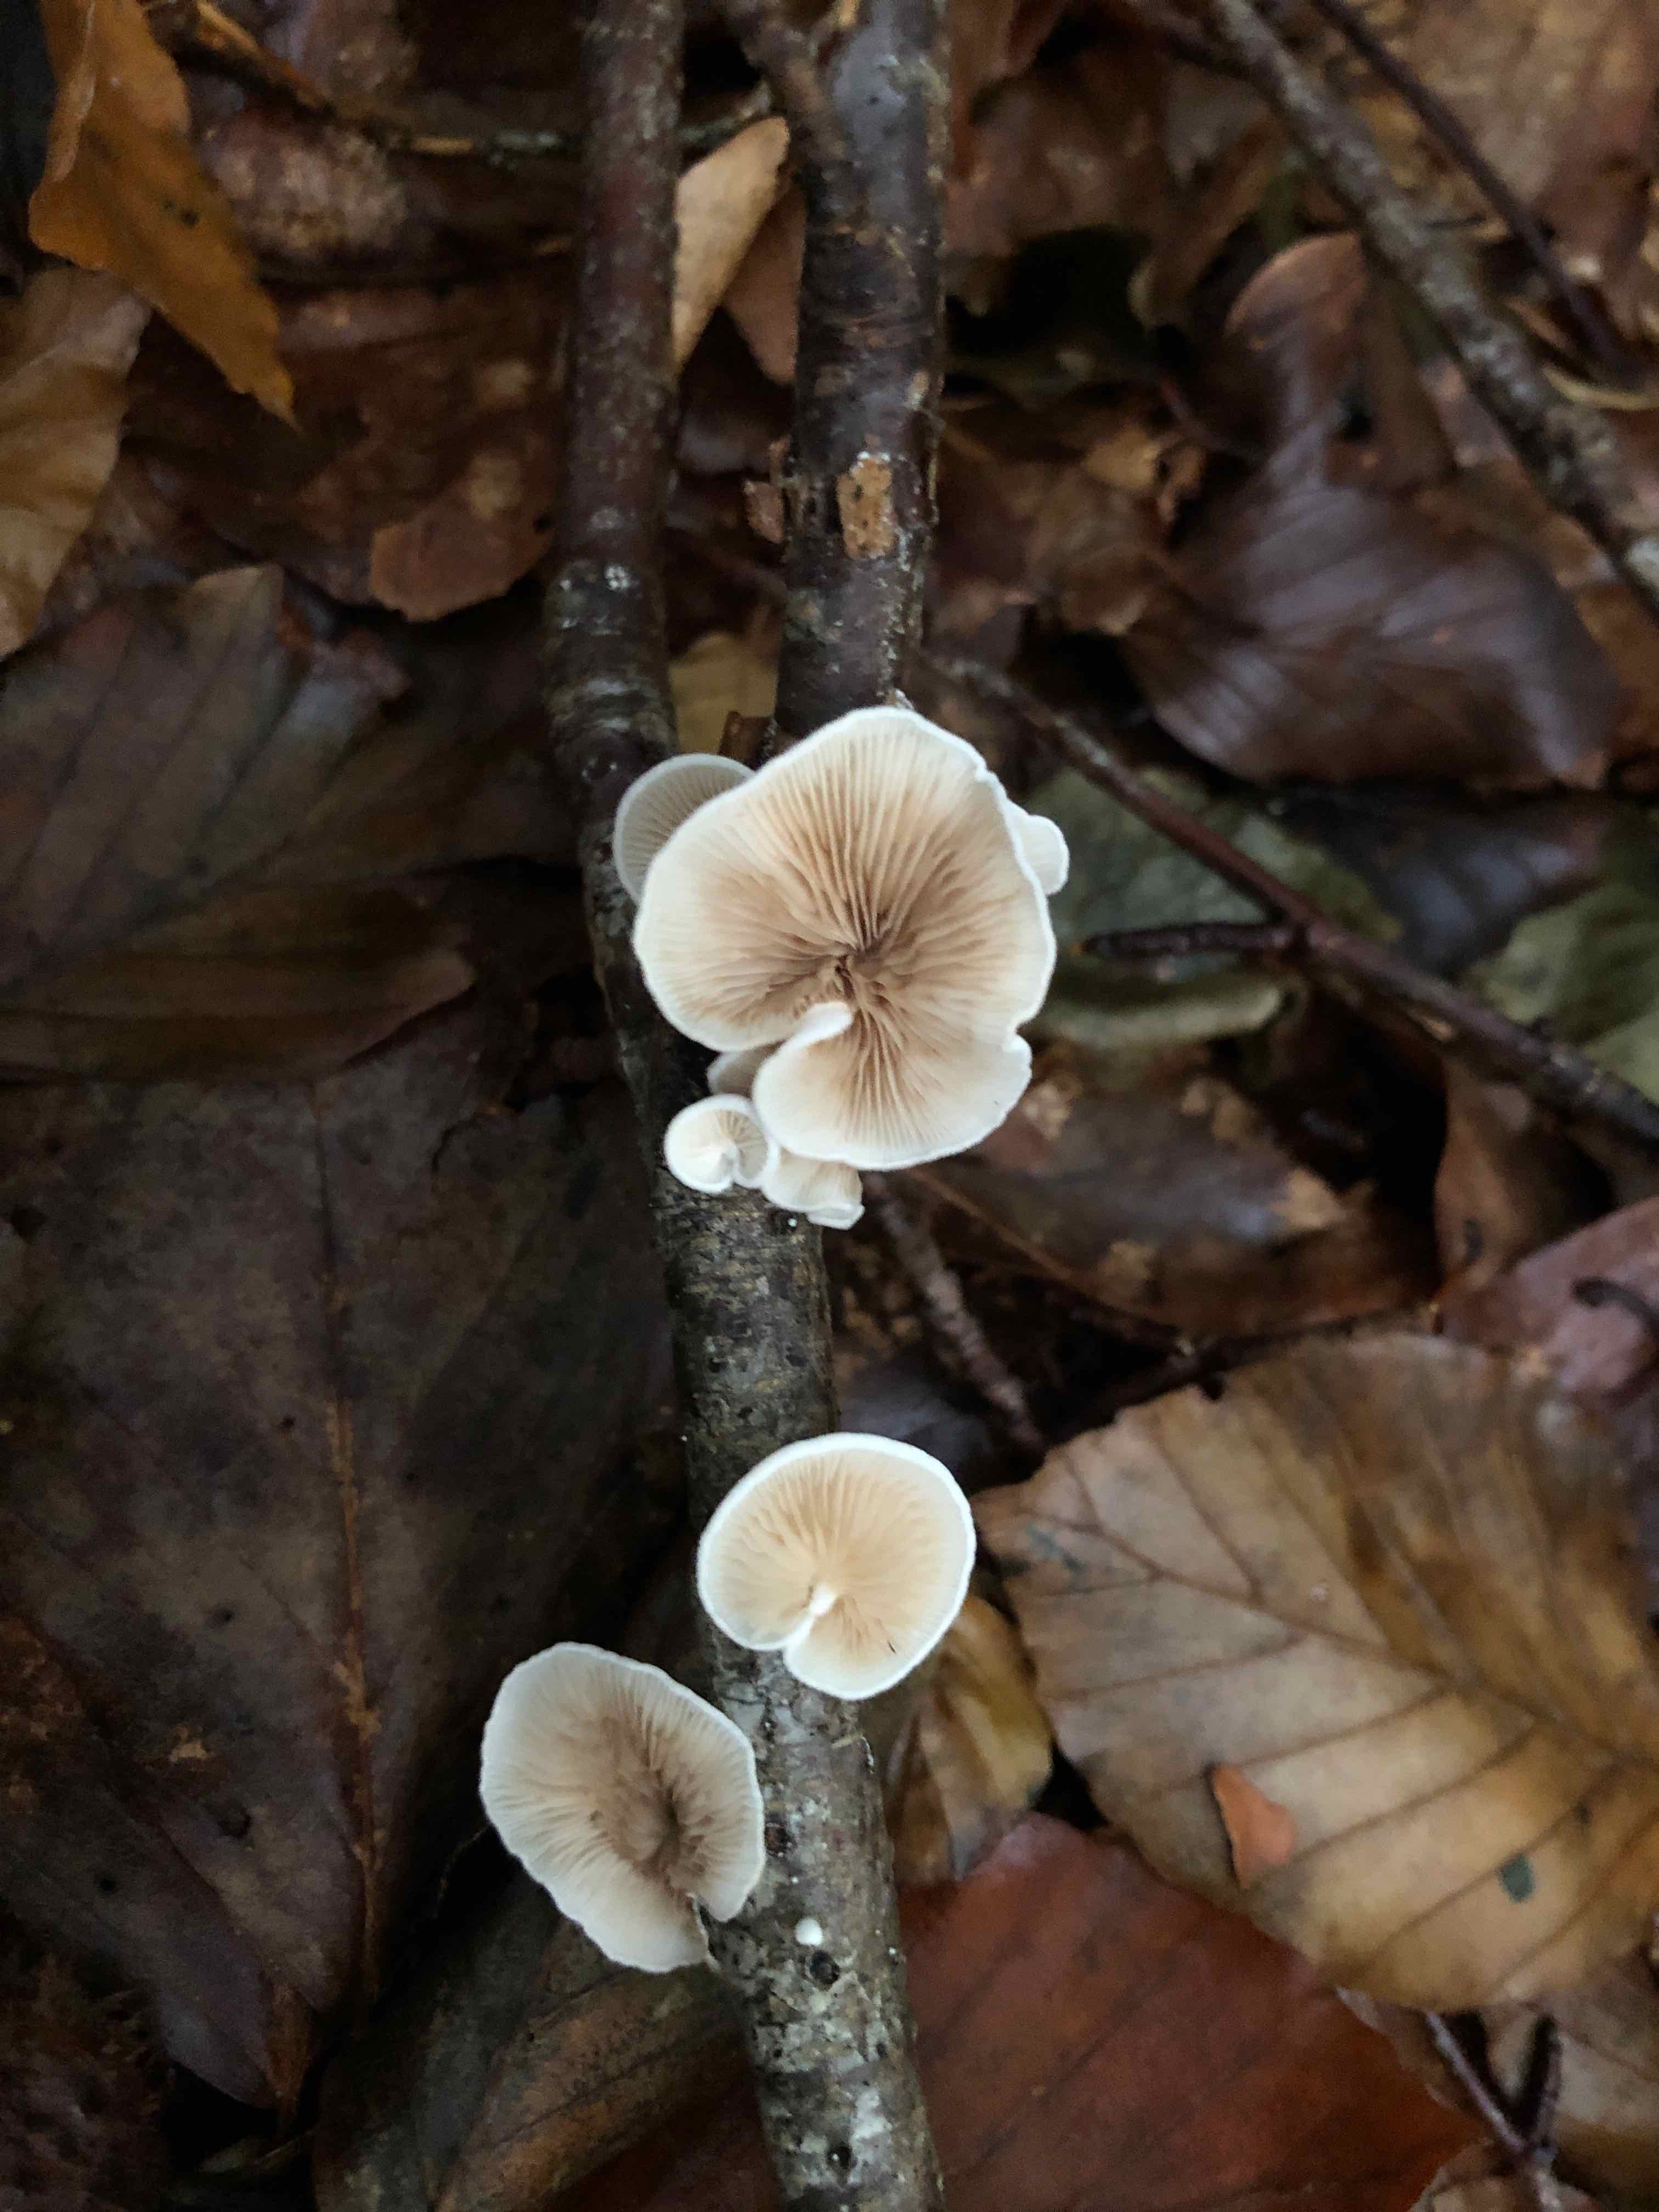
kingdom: Fungi
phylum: Basidiomycota
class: Agaricomycetes
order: Agaricales
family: Crepidotaceae
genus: Crepidotus
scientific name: Crepidotus variabilis
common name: forskelligformet muslingesvamp
